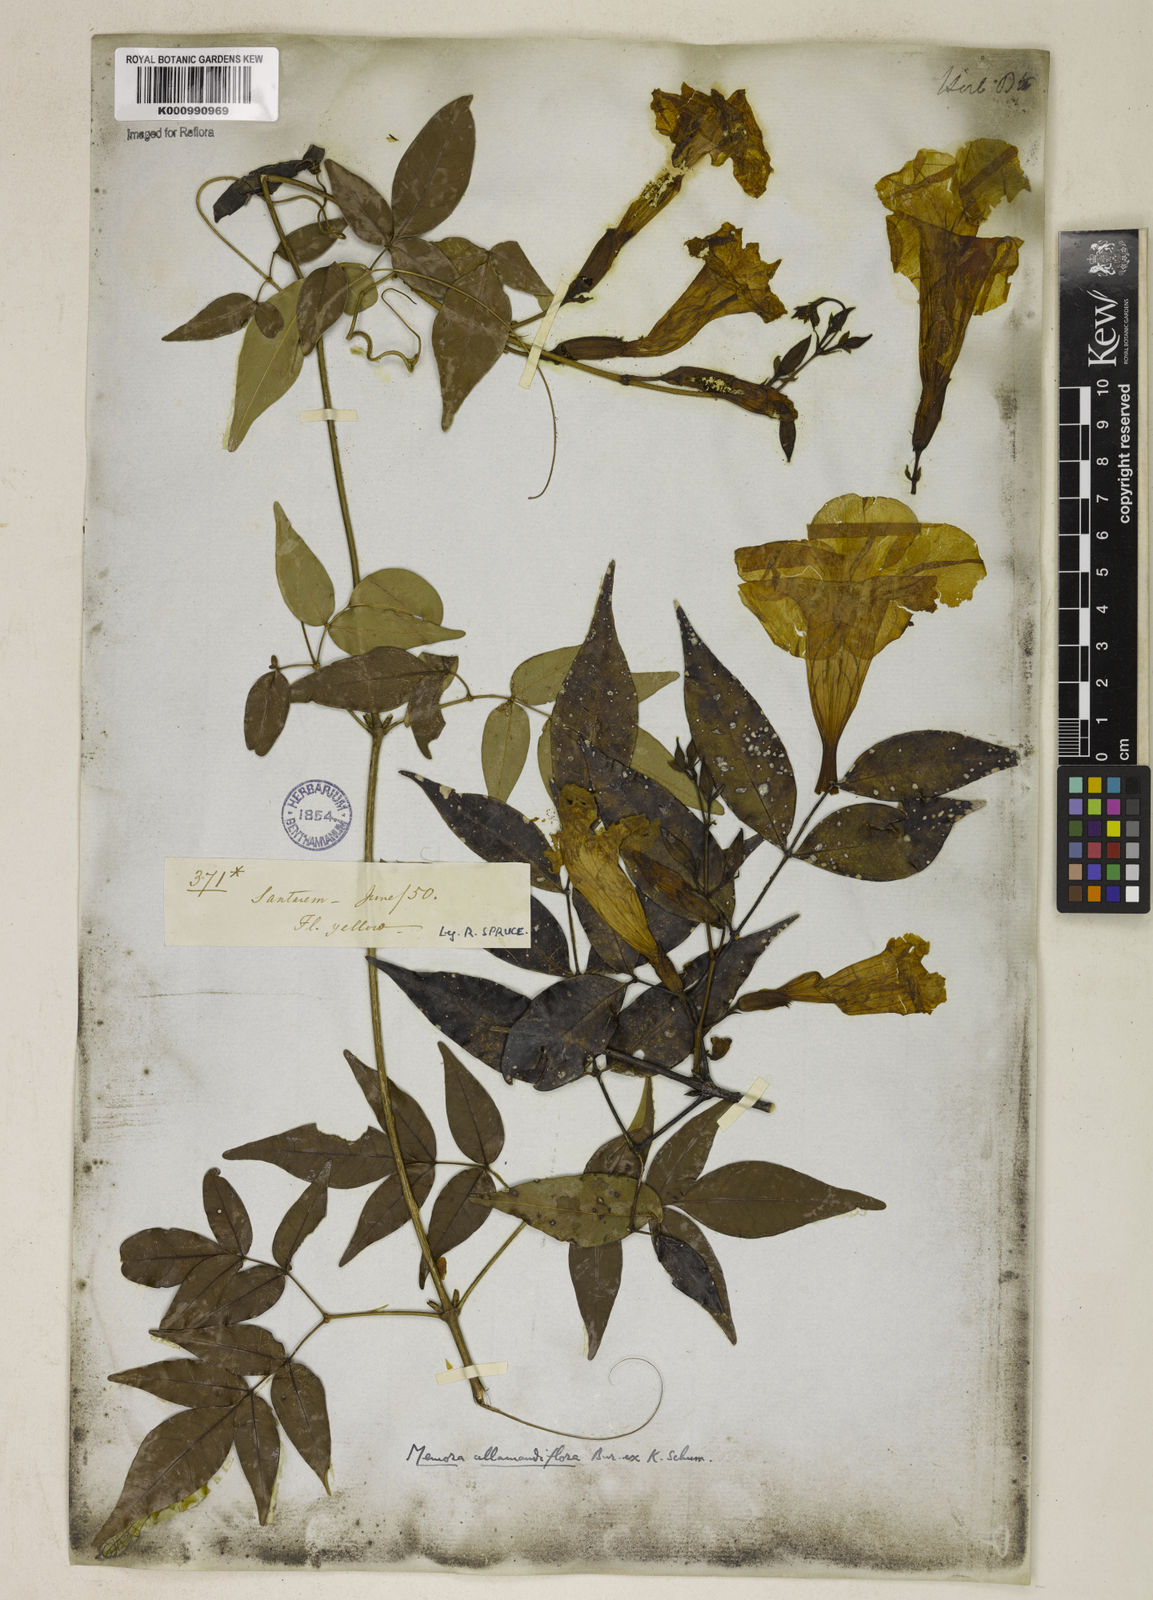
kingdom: Plantae
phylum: Tracheophyta
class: Magnoliopsida
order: Lamiales
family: Bignoniaceae
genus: Adenocalymma
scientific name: Adenocalymma
